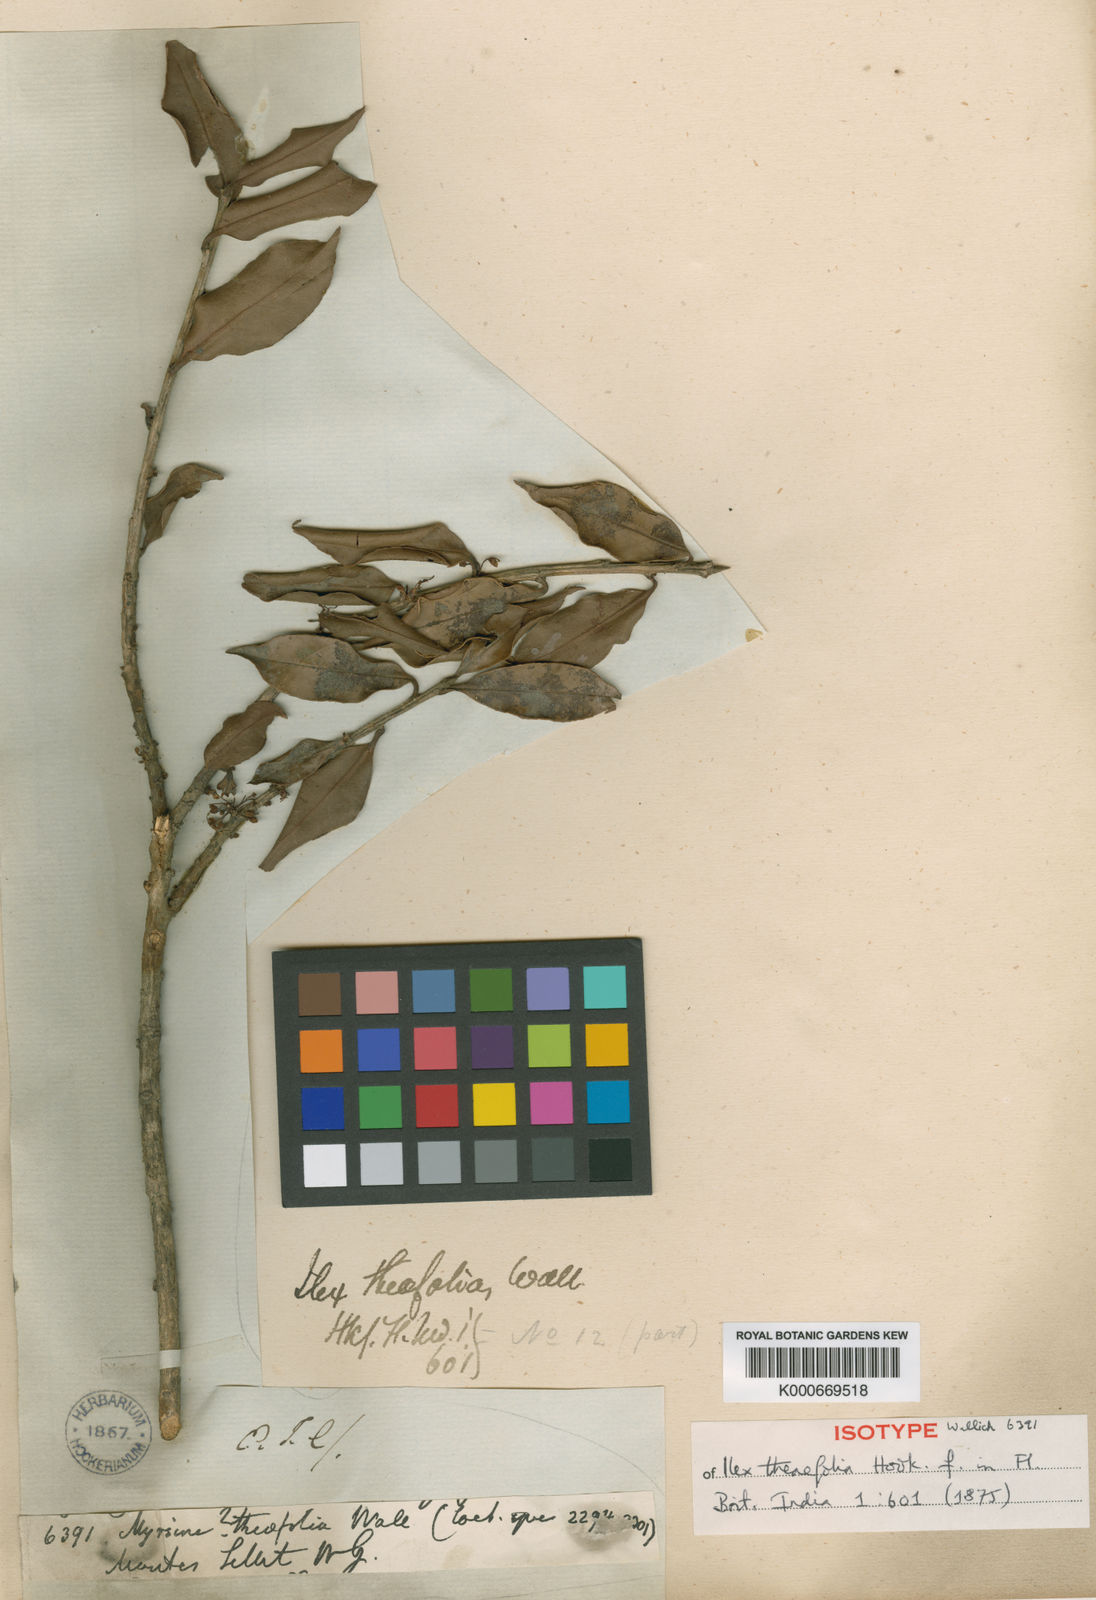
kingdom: Plantae
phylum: Tracheophyta
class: Magnoliopsida
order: Aquifoliales
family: Aquifoliaceae
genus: Ilex
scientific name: Ilex odorata
